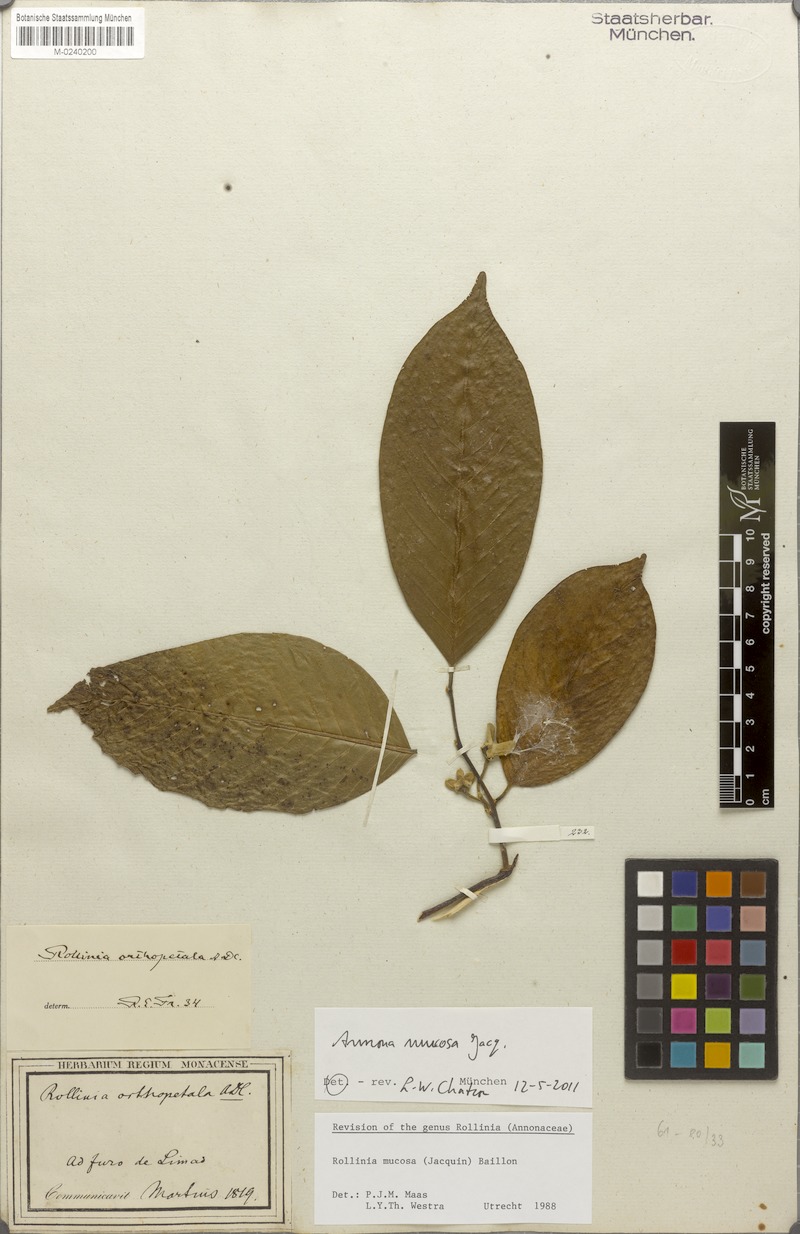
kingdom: Plantae
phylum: Tracheophyta
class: Magnoliopsida
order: Magnoliales
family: Annonaceae
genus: Annona
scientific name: Annona mucosa
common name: Sugar apple
